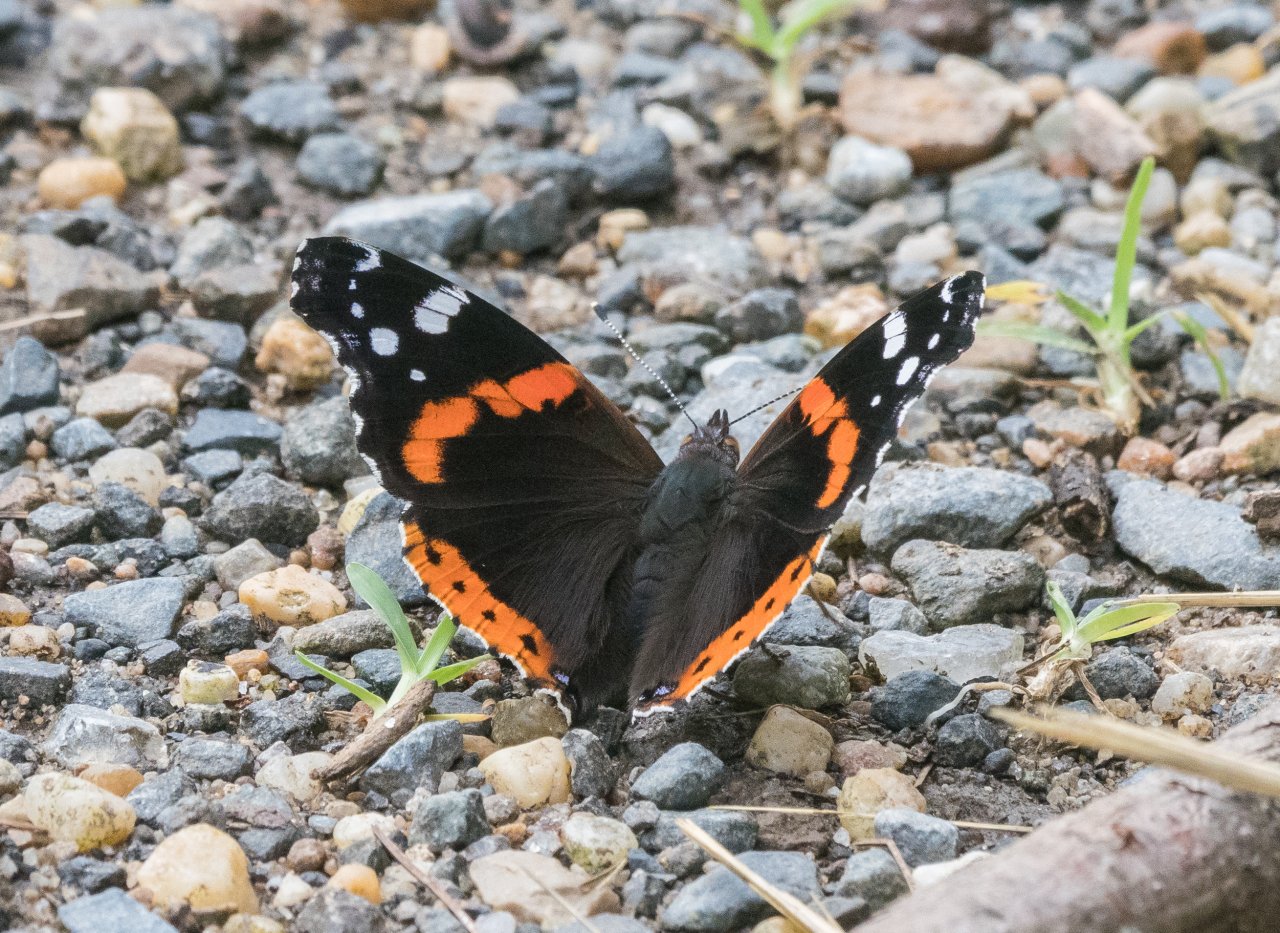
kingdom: Animalia
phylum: Arthropoda
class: Insecta
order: Lepidoptera
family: Nymphalidae
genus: Vanessa
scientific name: Vanessa atalanta
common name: Red Admiral
